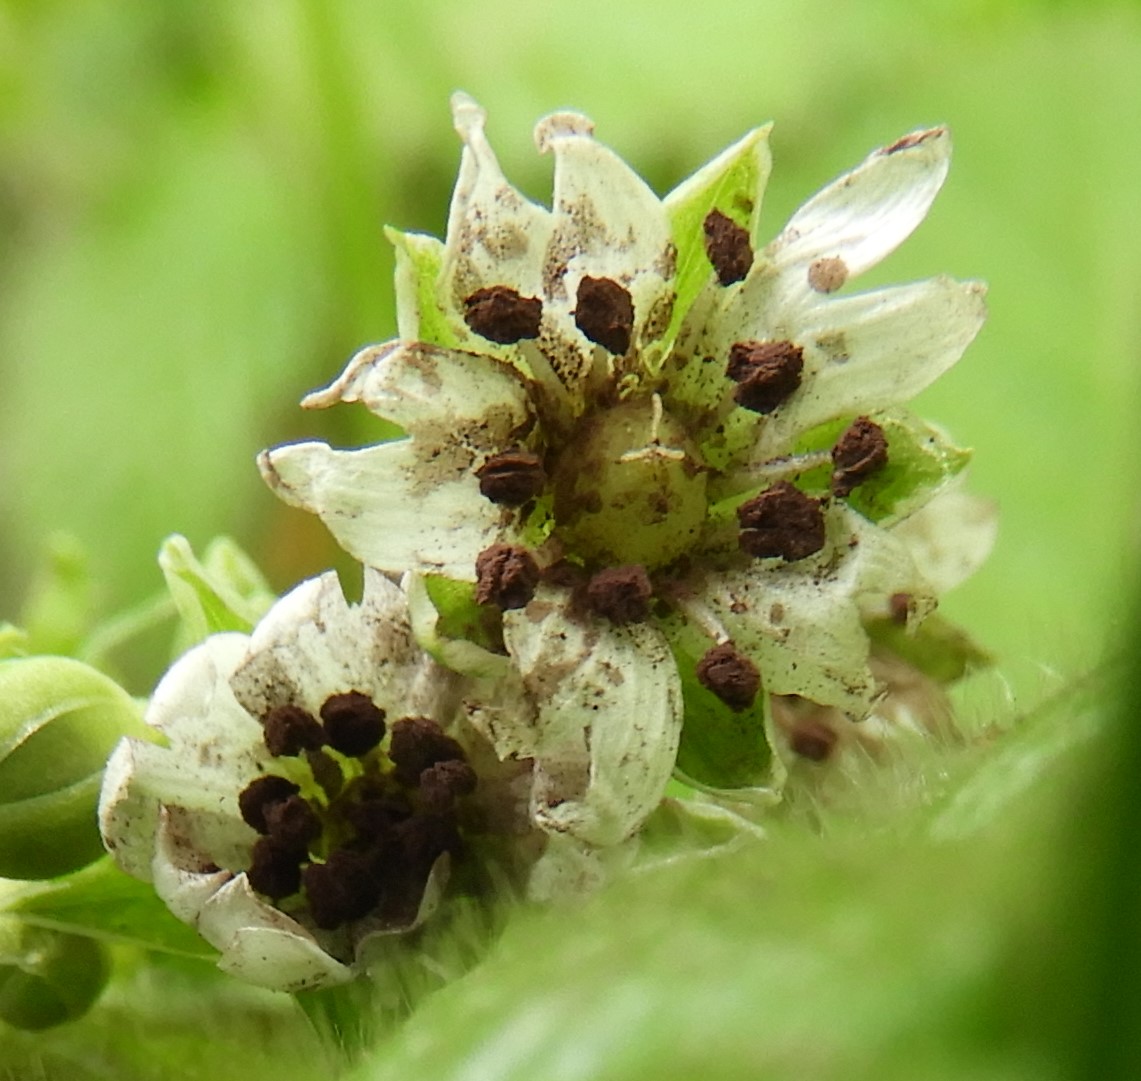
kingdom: Fungi
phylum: Basidiomycota
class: Microbotryomycetes
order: Microbotryales
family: Microbotryaceae
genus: Microbotryum
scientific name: Microbotryum stellariae
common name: fladstjerne-støvbladrust
